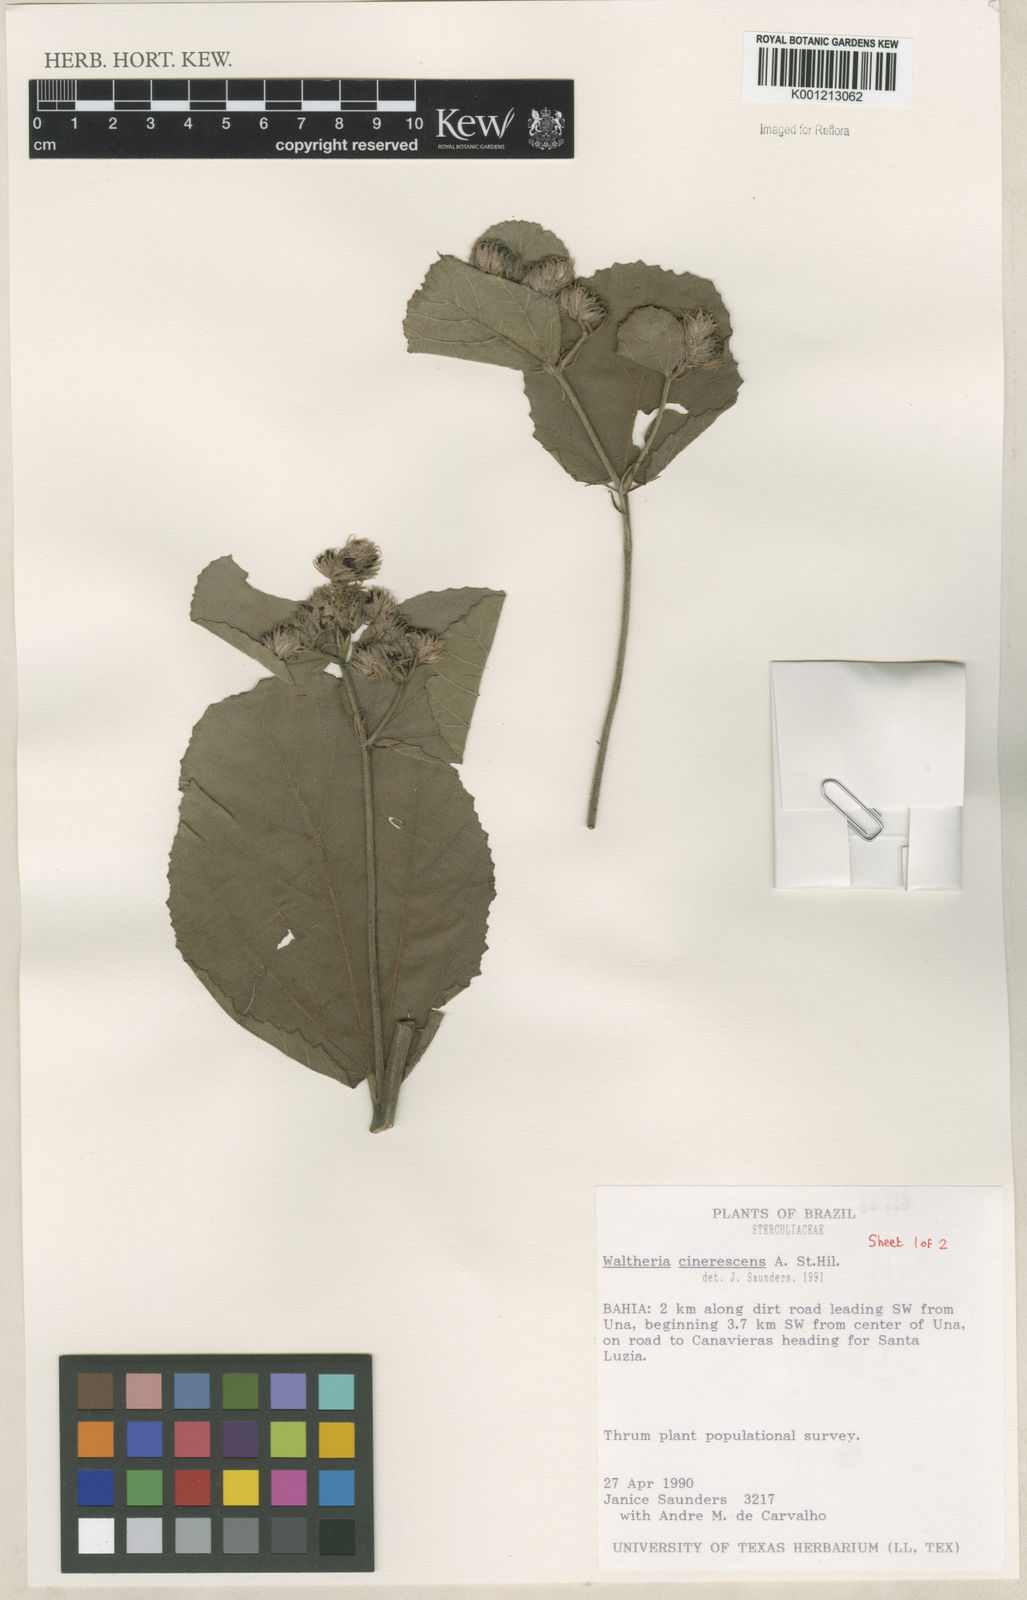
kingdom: Plantae
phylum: Tracheophyta
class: Magnoliopsida
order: Malvales
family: Malvaceae
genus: Waltheria
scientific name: Waltheria cinerescens
